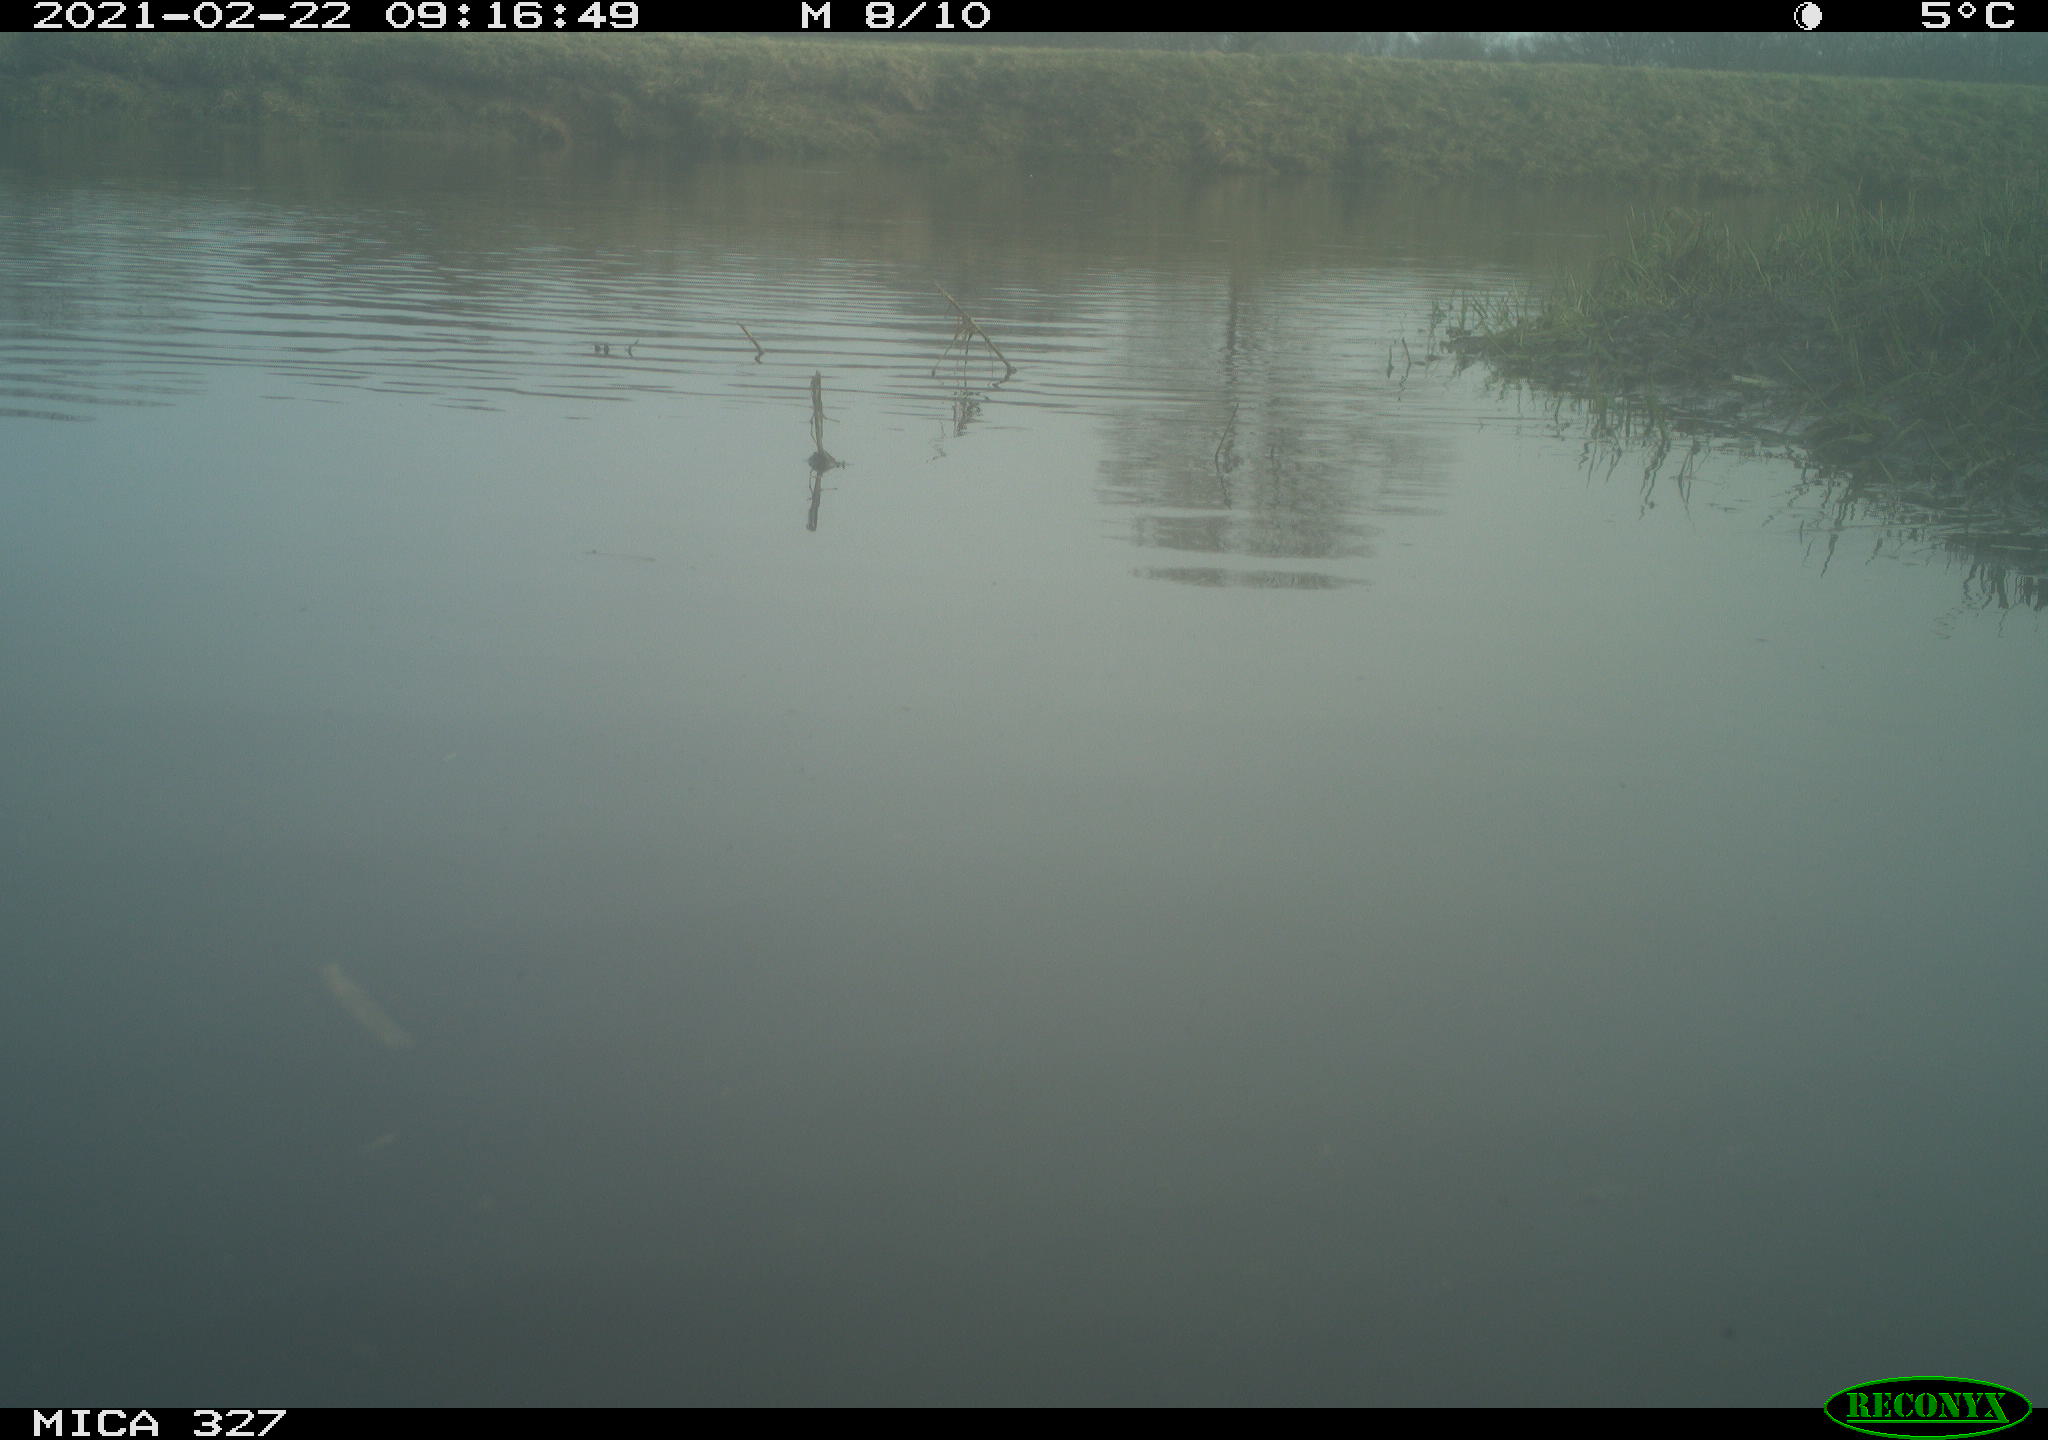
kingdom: Animalia
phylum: Chordata
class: Aves
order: Gruiformes
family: Rallidae
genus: Fulica
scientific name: Fulica atra
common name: Eurasian coot
